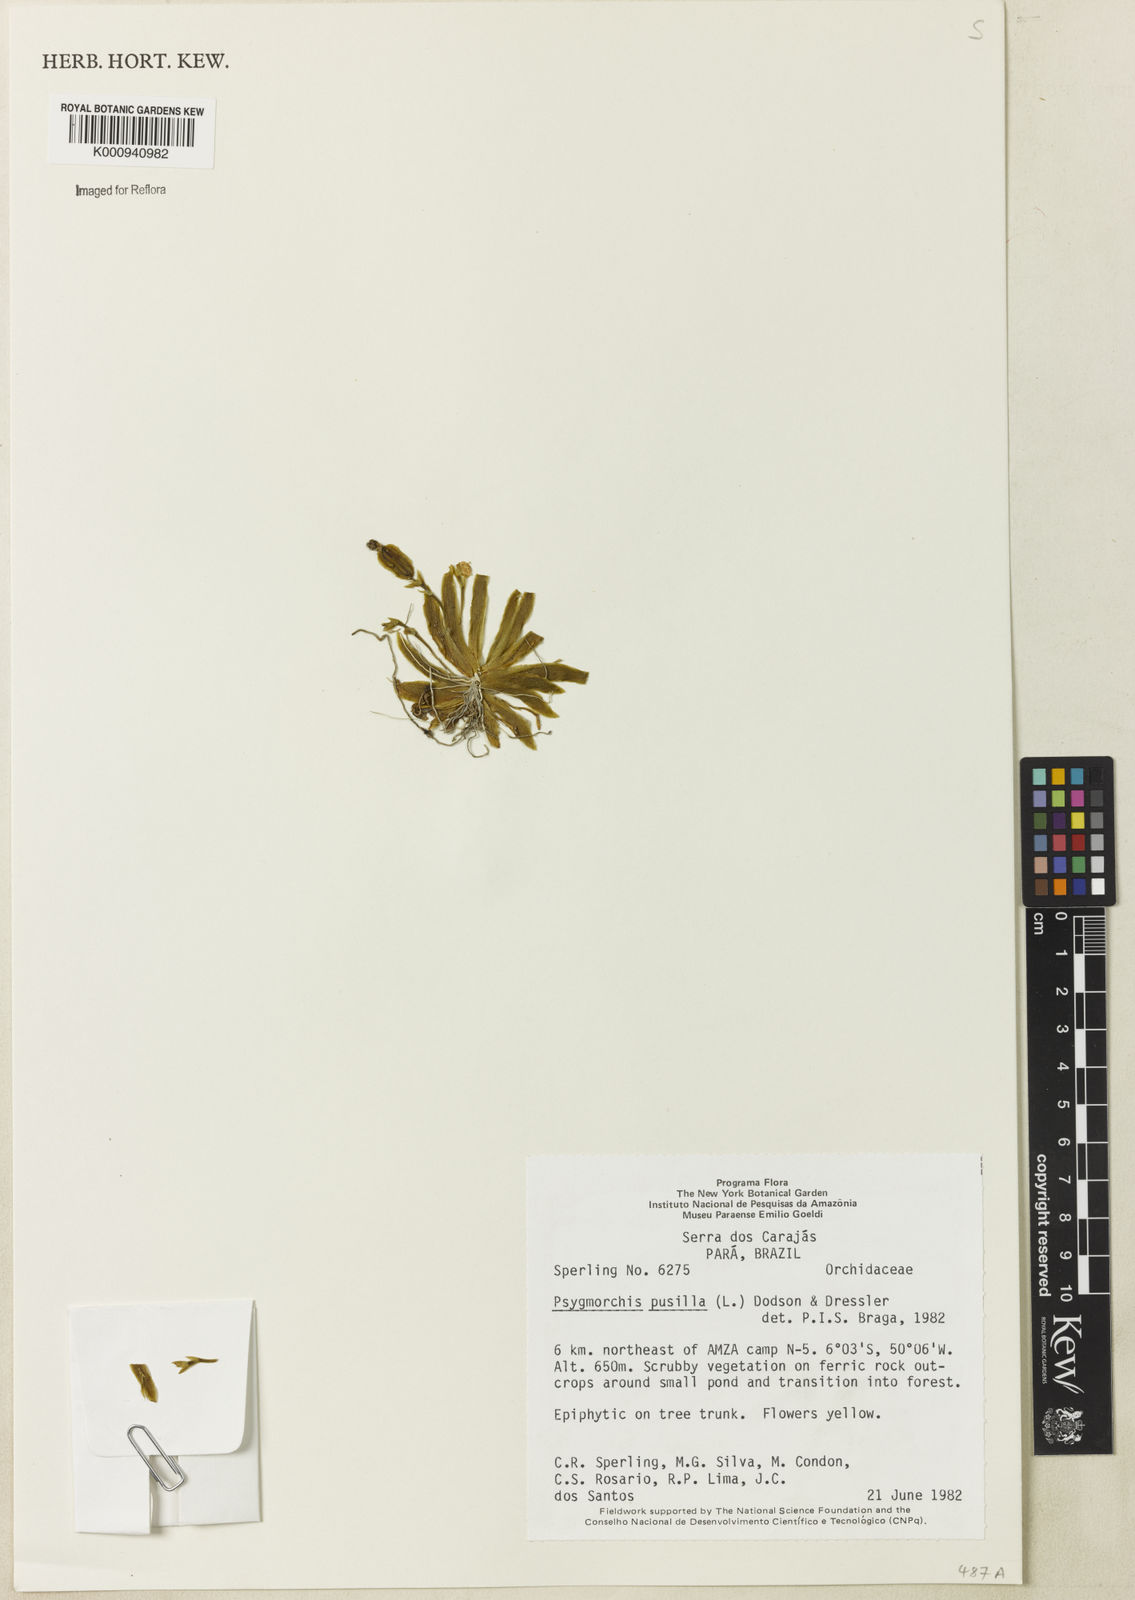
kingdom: Plantae
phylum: Tracheophyta
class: Liliopsida
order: Asparagales
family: Orchidaceae
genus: Erycina
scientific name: Erycina pusilla
